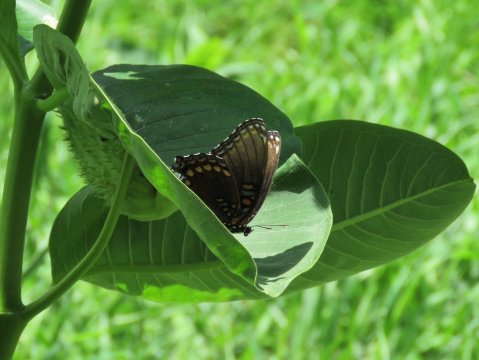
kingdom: Animalia
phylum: Arthropoda
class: Insecta
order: Lepidoptera
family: Nymphalidae
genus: Limenitis
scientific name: Limenitis arthemis
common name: Red-spotted Admiral
